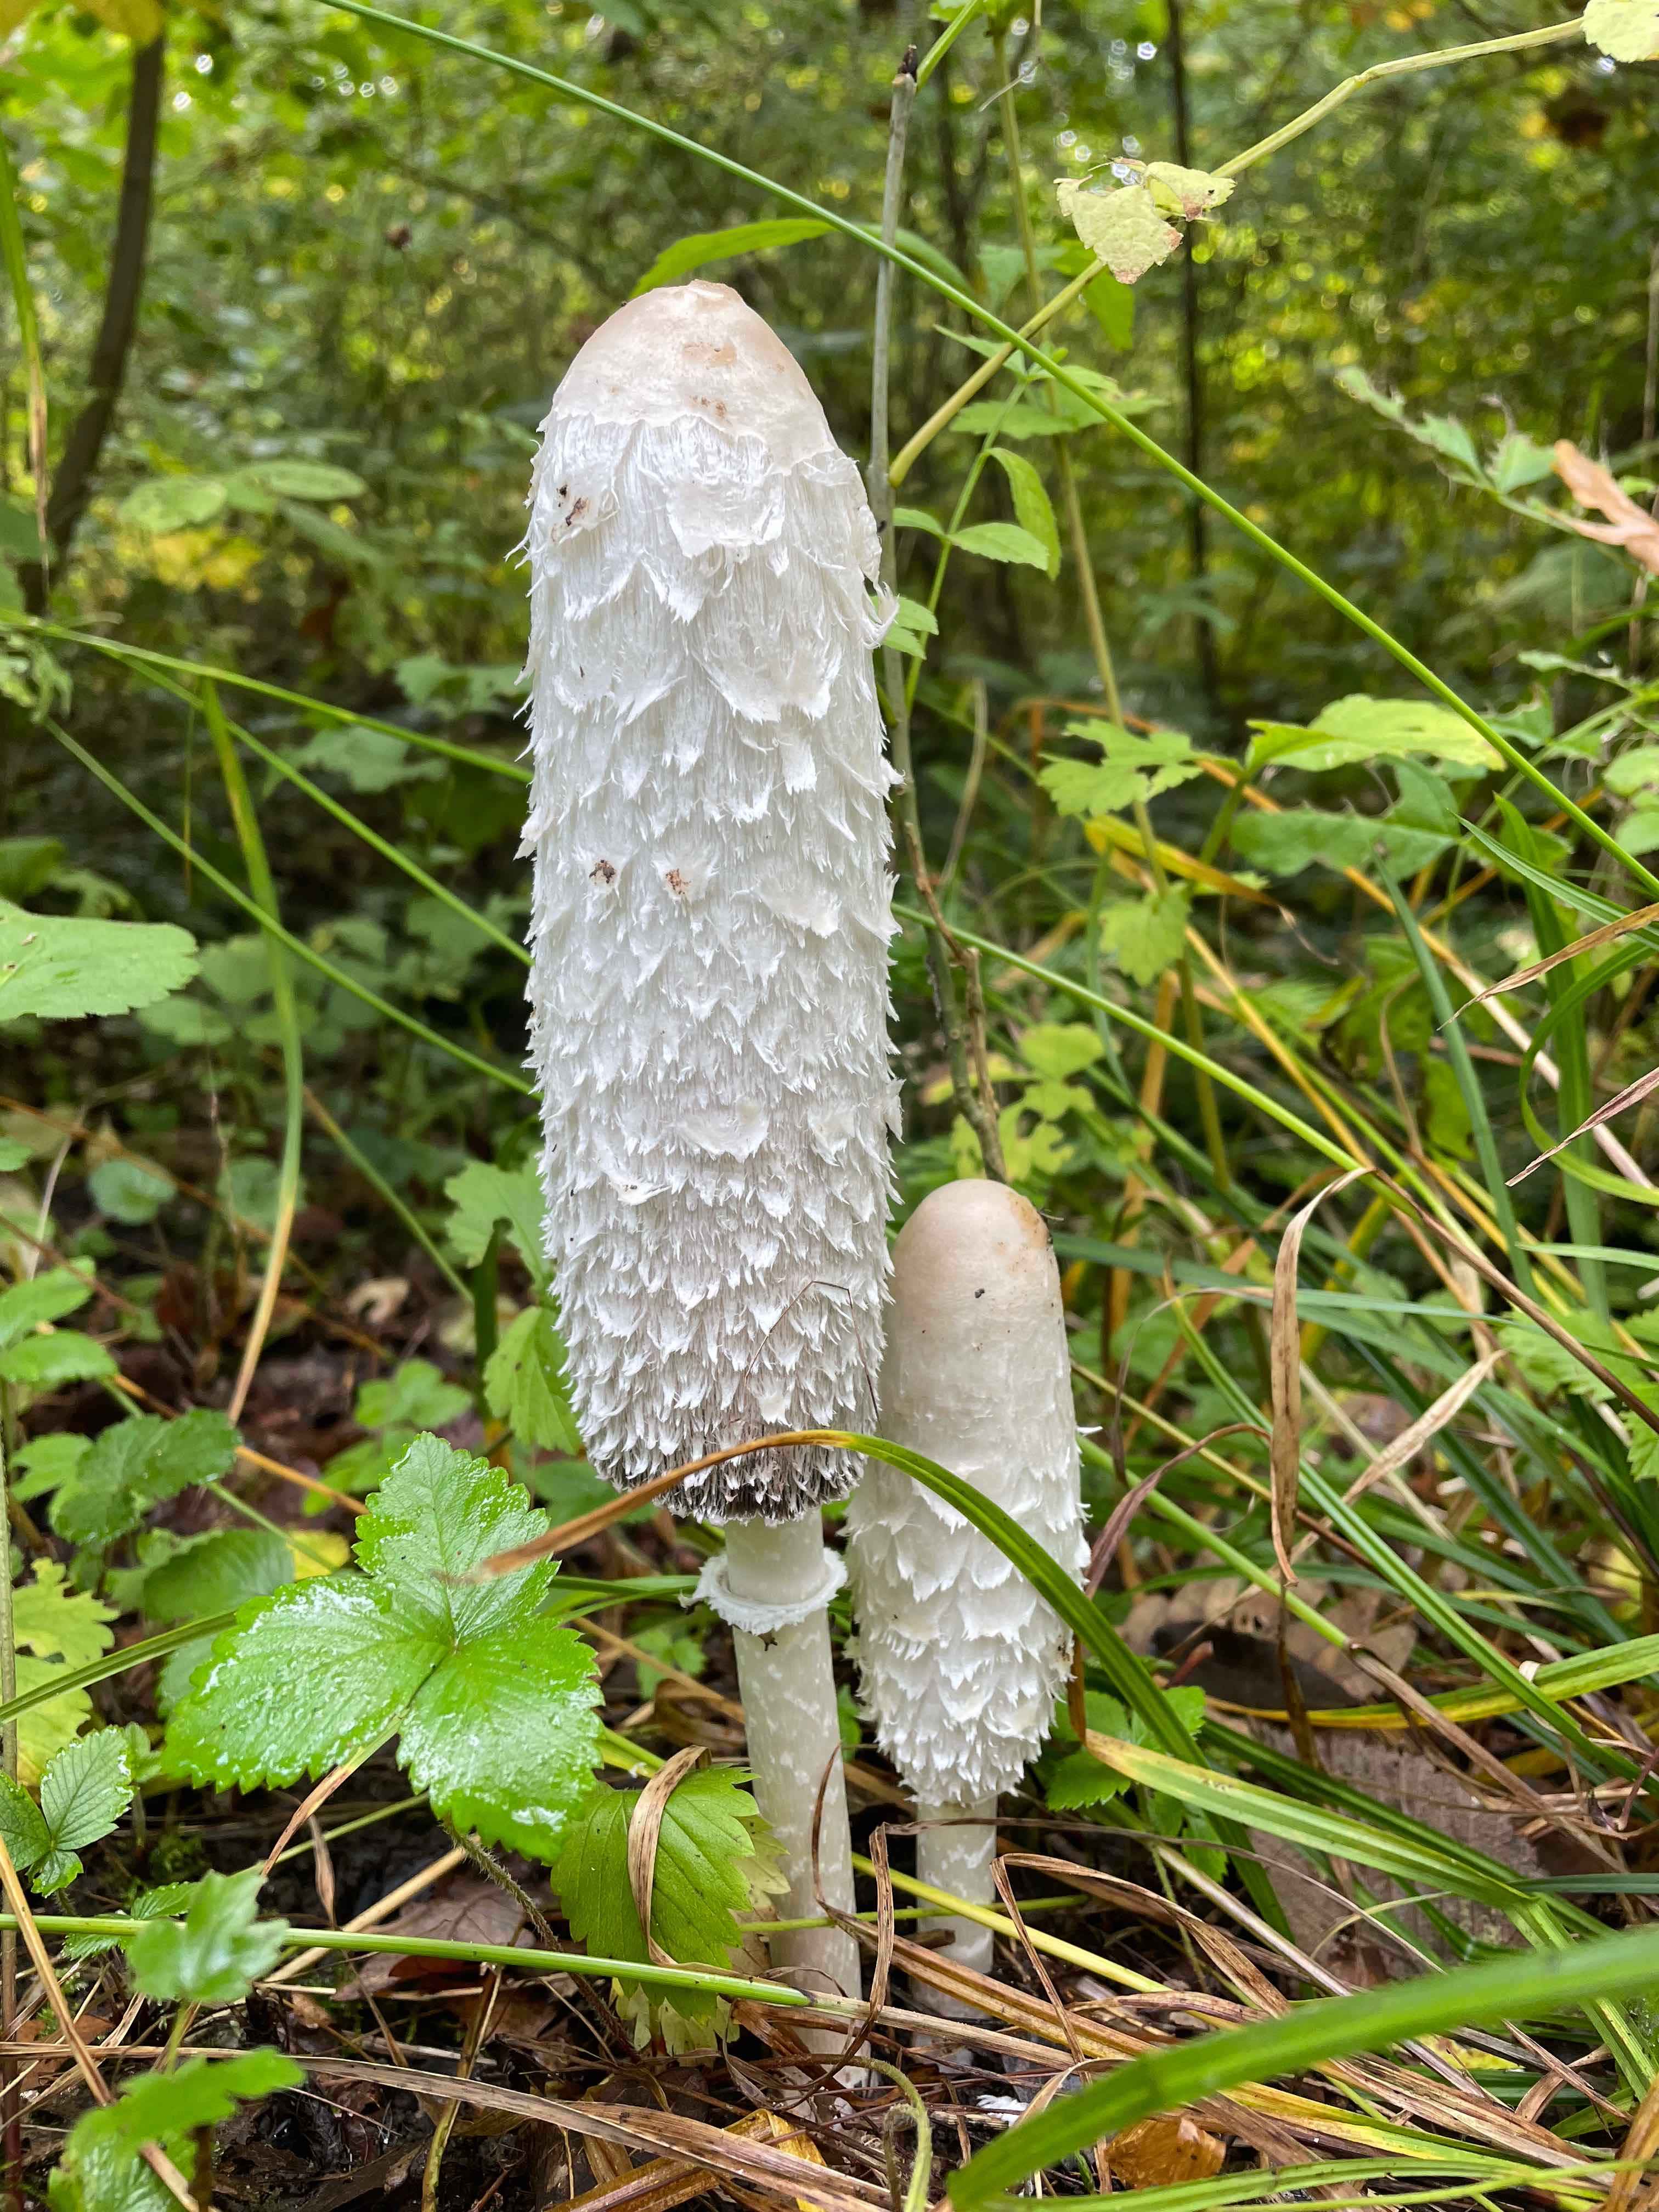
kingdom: Fungi
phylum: Basidiomycota
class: Agaricomycetes
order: Agaricales
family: Agaricaceae
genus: Coprinus
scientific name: Coprinus comatus
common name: stor parykhat
